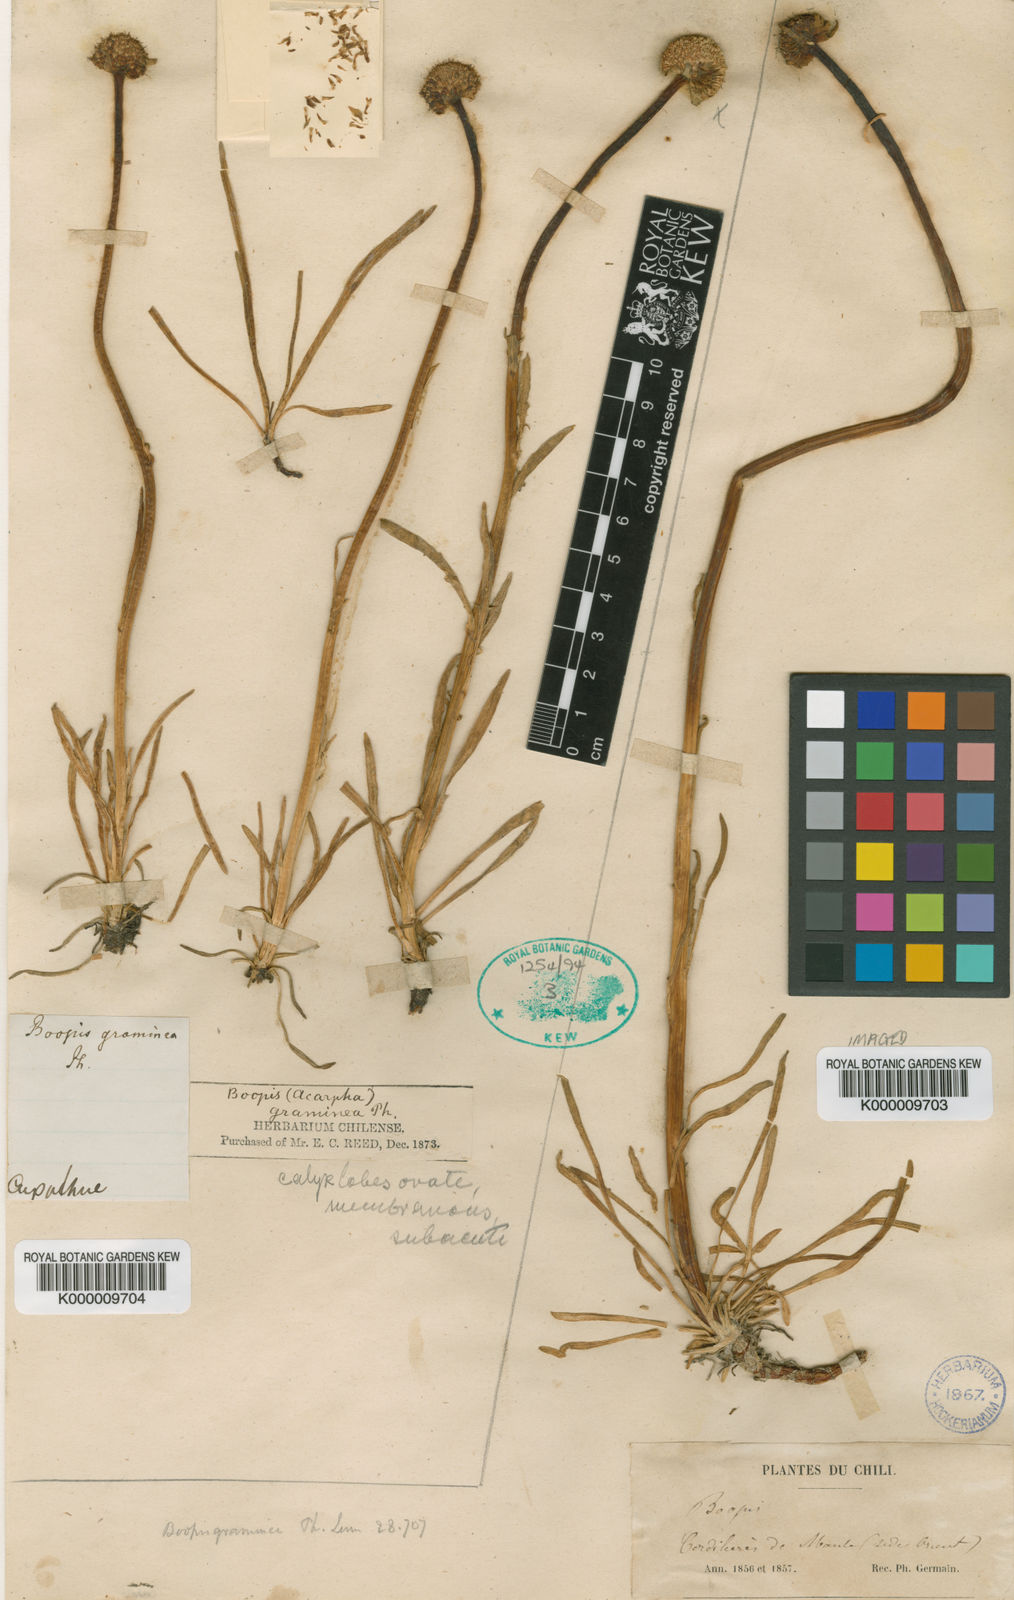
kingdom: Plantae
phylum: Tracheophyta
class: Magnoliopsida
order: Asterales
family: Calyceraceae
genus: Gamocarpha
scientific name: Gamocarpha graminea
